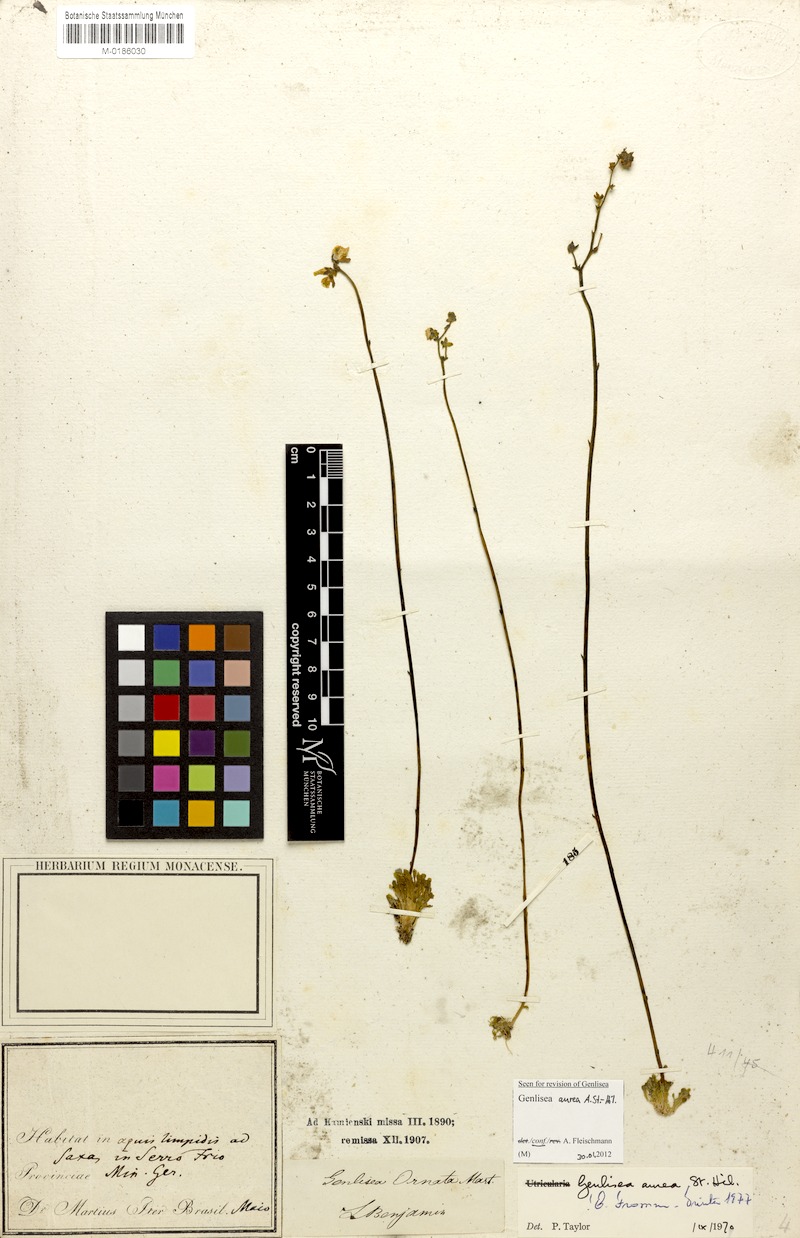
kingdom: Plantae
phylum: Tracheophyta
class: Magnoliopsida
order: Lamiales
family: Lentibulariaceae
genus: Genlisea
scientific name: Genlisea aurea
